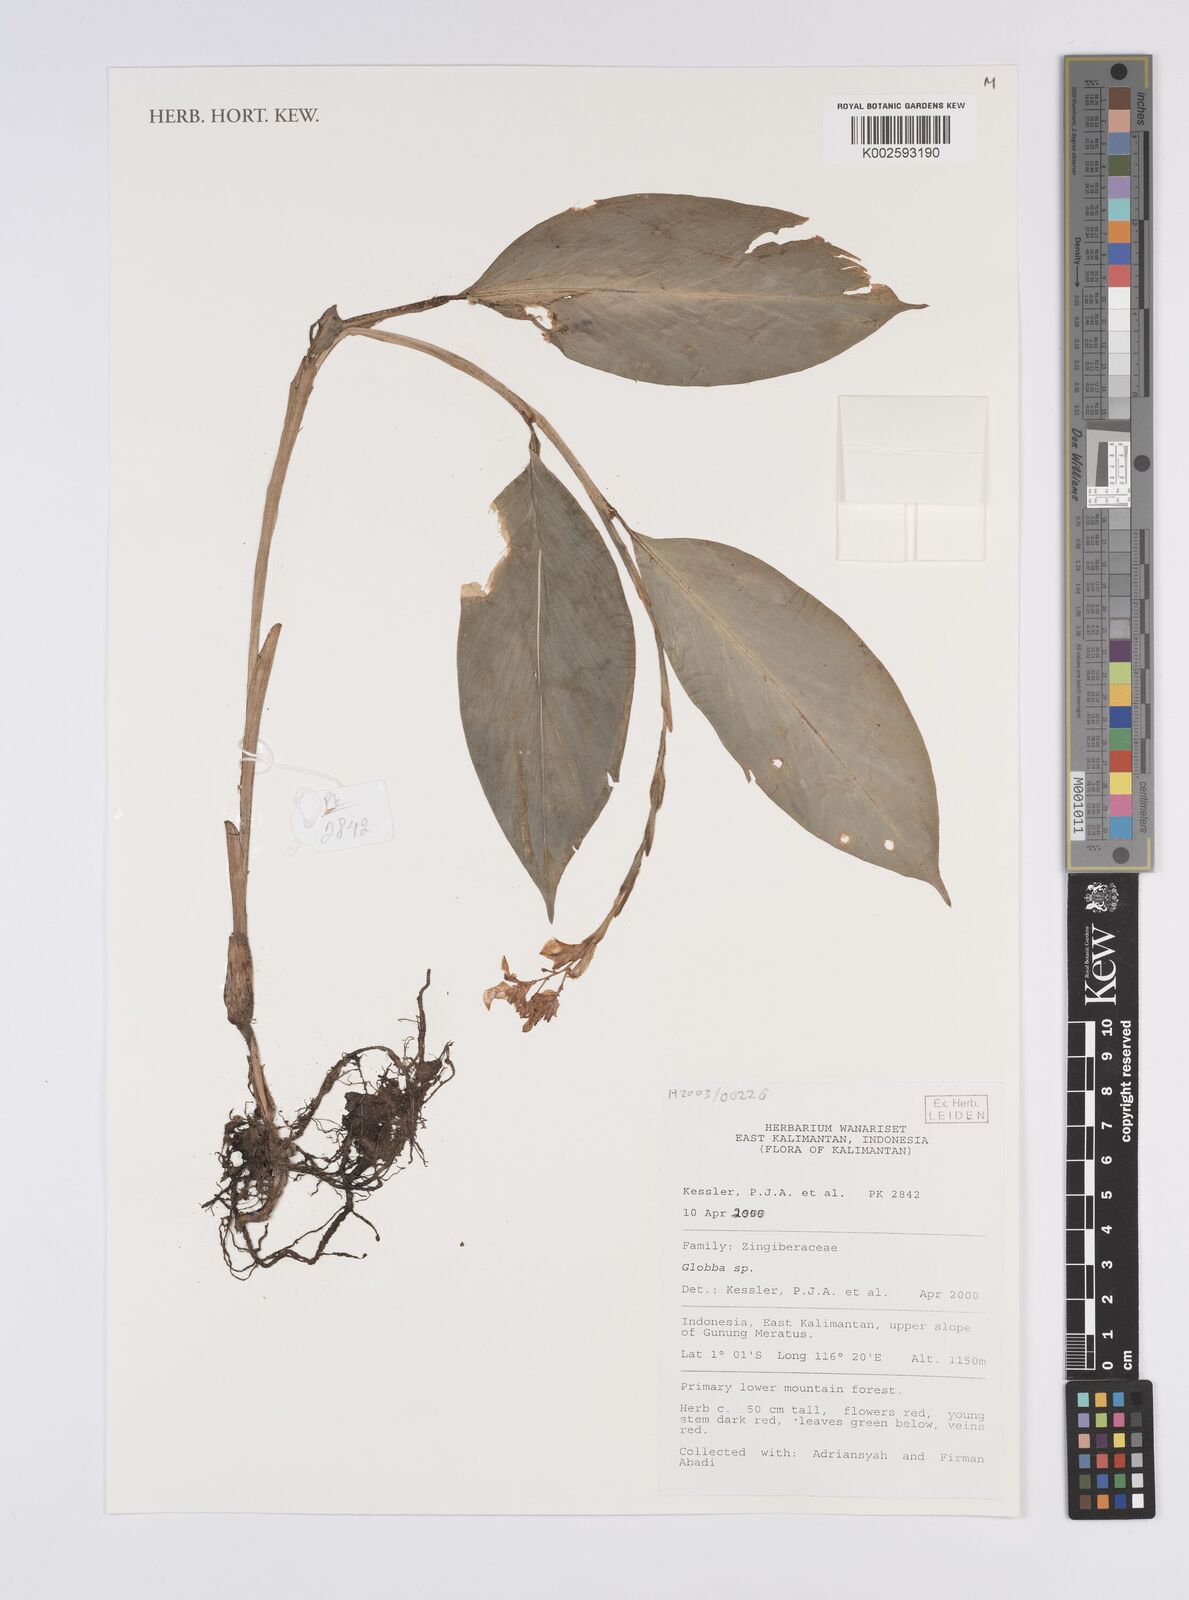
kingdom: Plantae
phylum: Tracheophyta
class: Liliopsida
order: Zingiberales
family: Zingiberaceae
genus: Globba
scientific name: Globba
